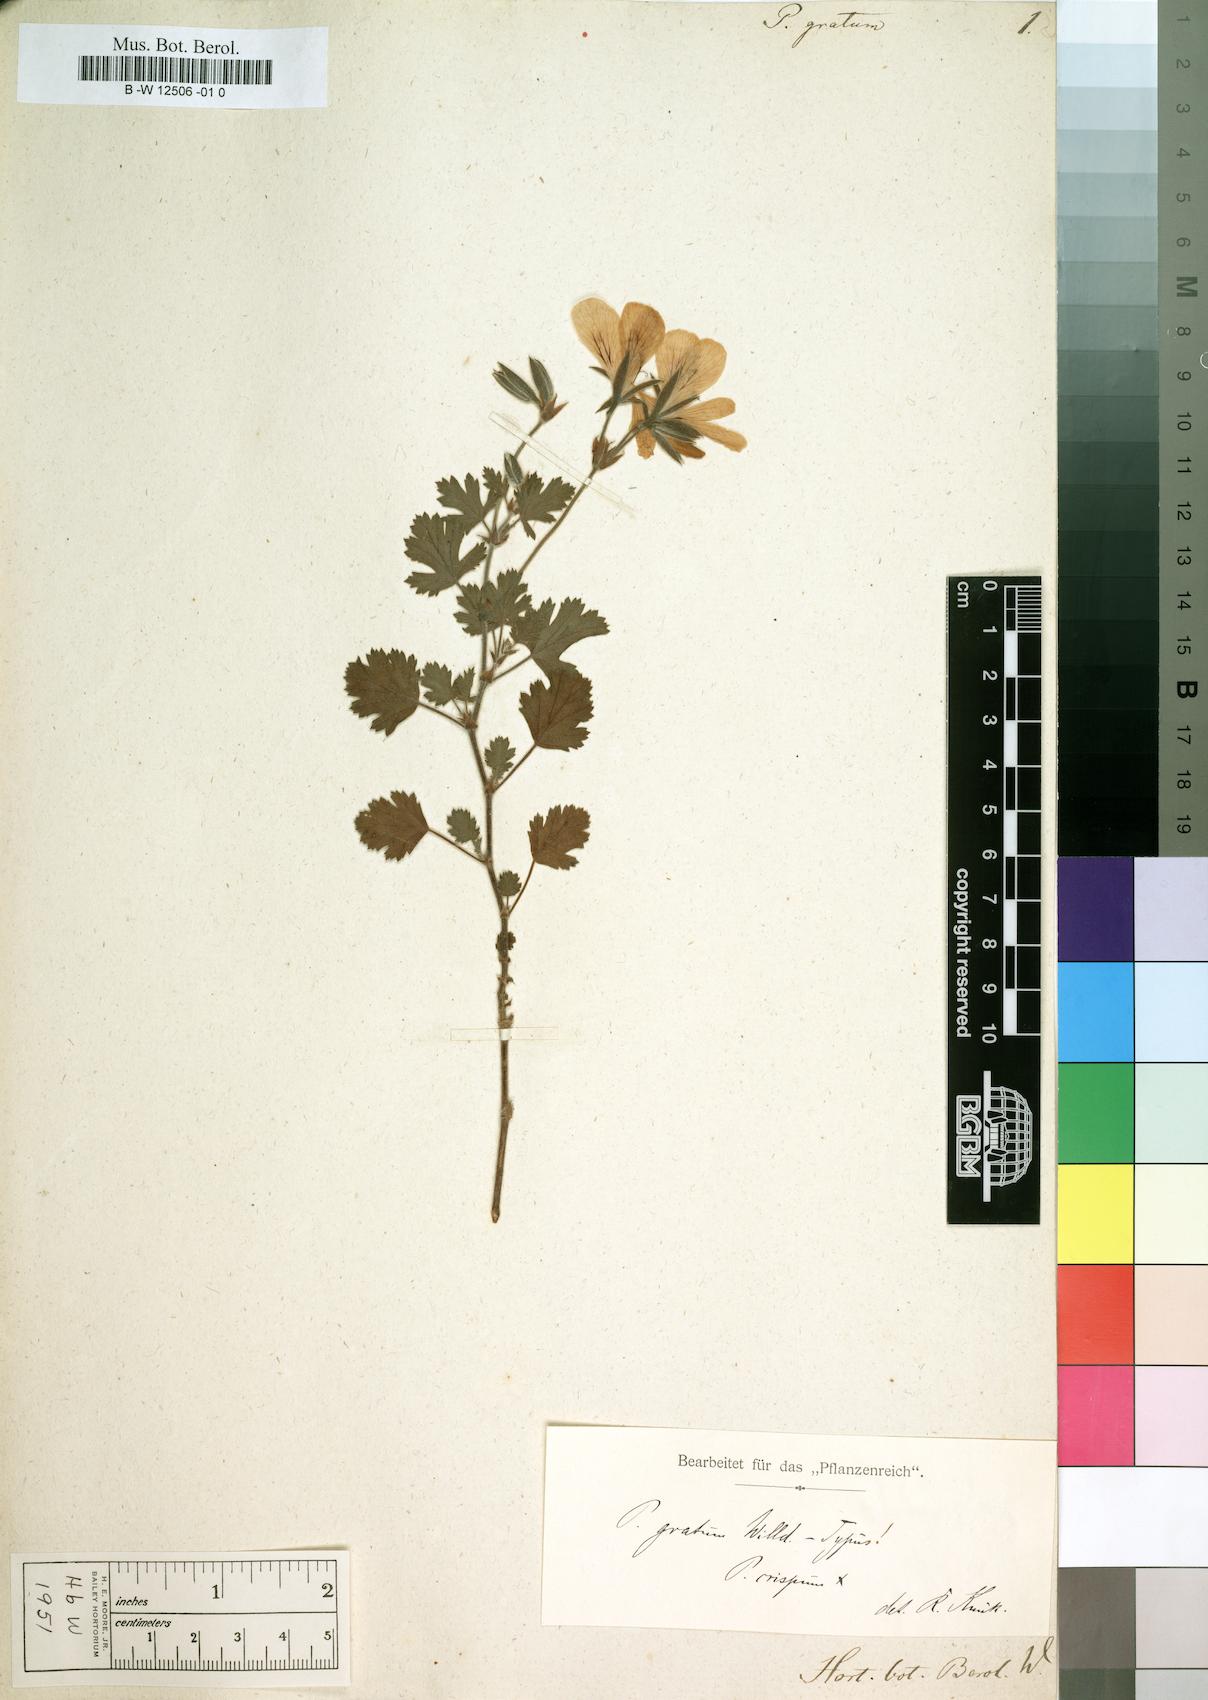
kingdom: Plantae
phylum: Tracheophyta
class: Magnoliopsida
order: Geraniales
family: Geraniaceae
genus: Pelargonium
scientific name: Pelargonium gratum
